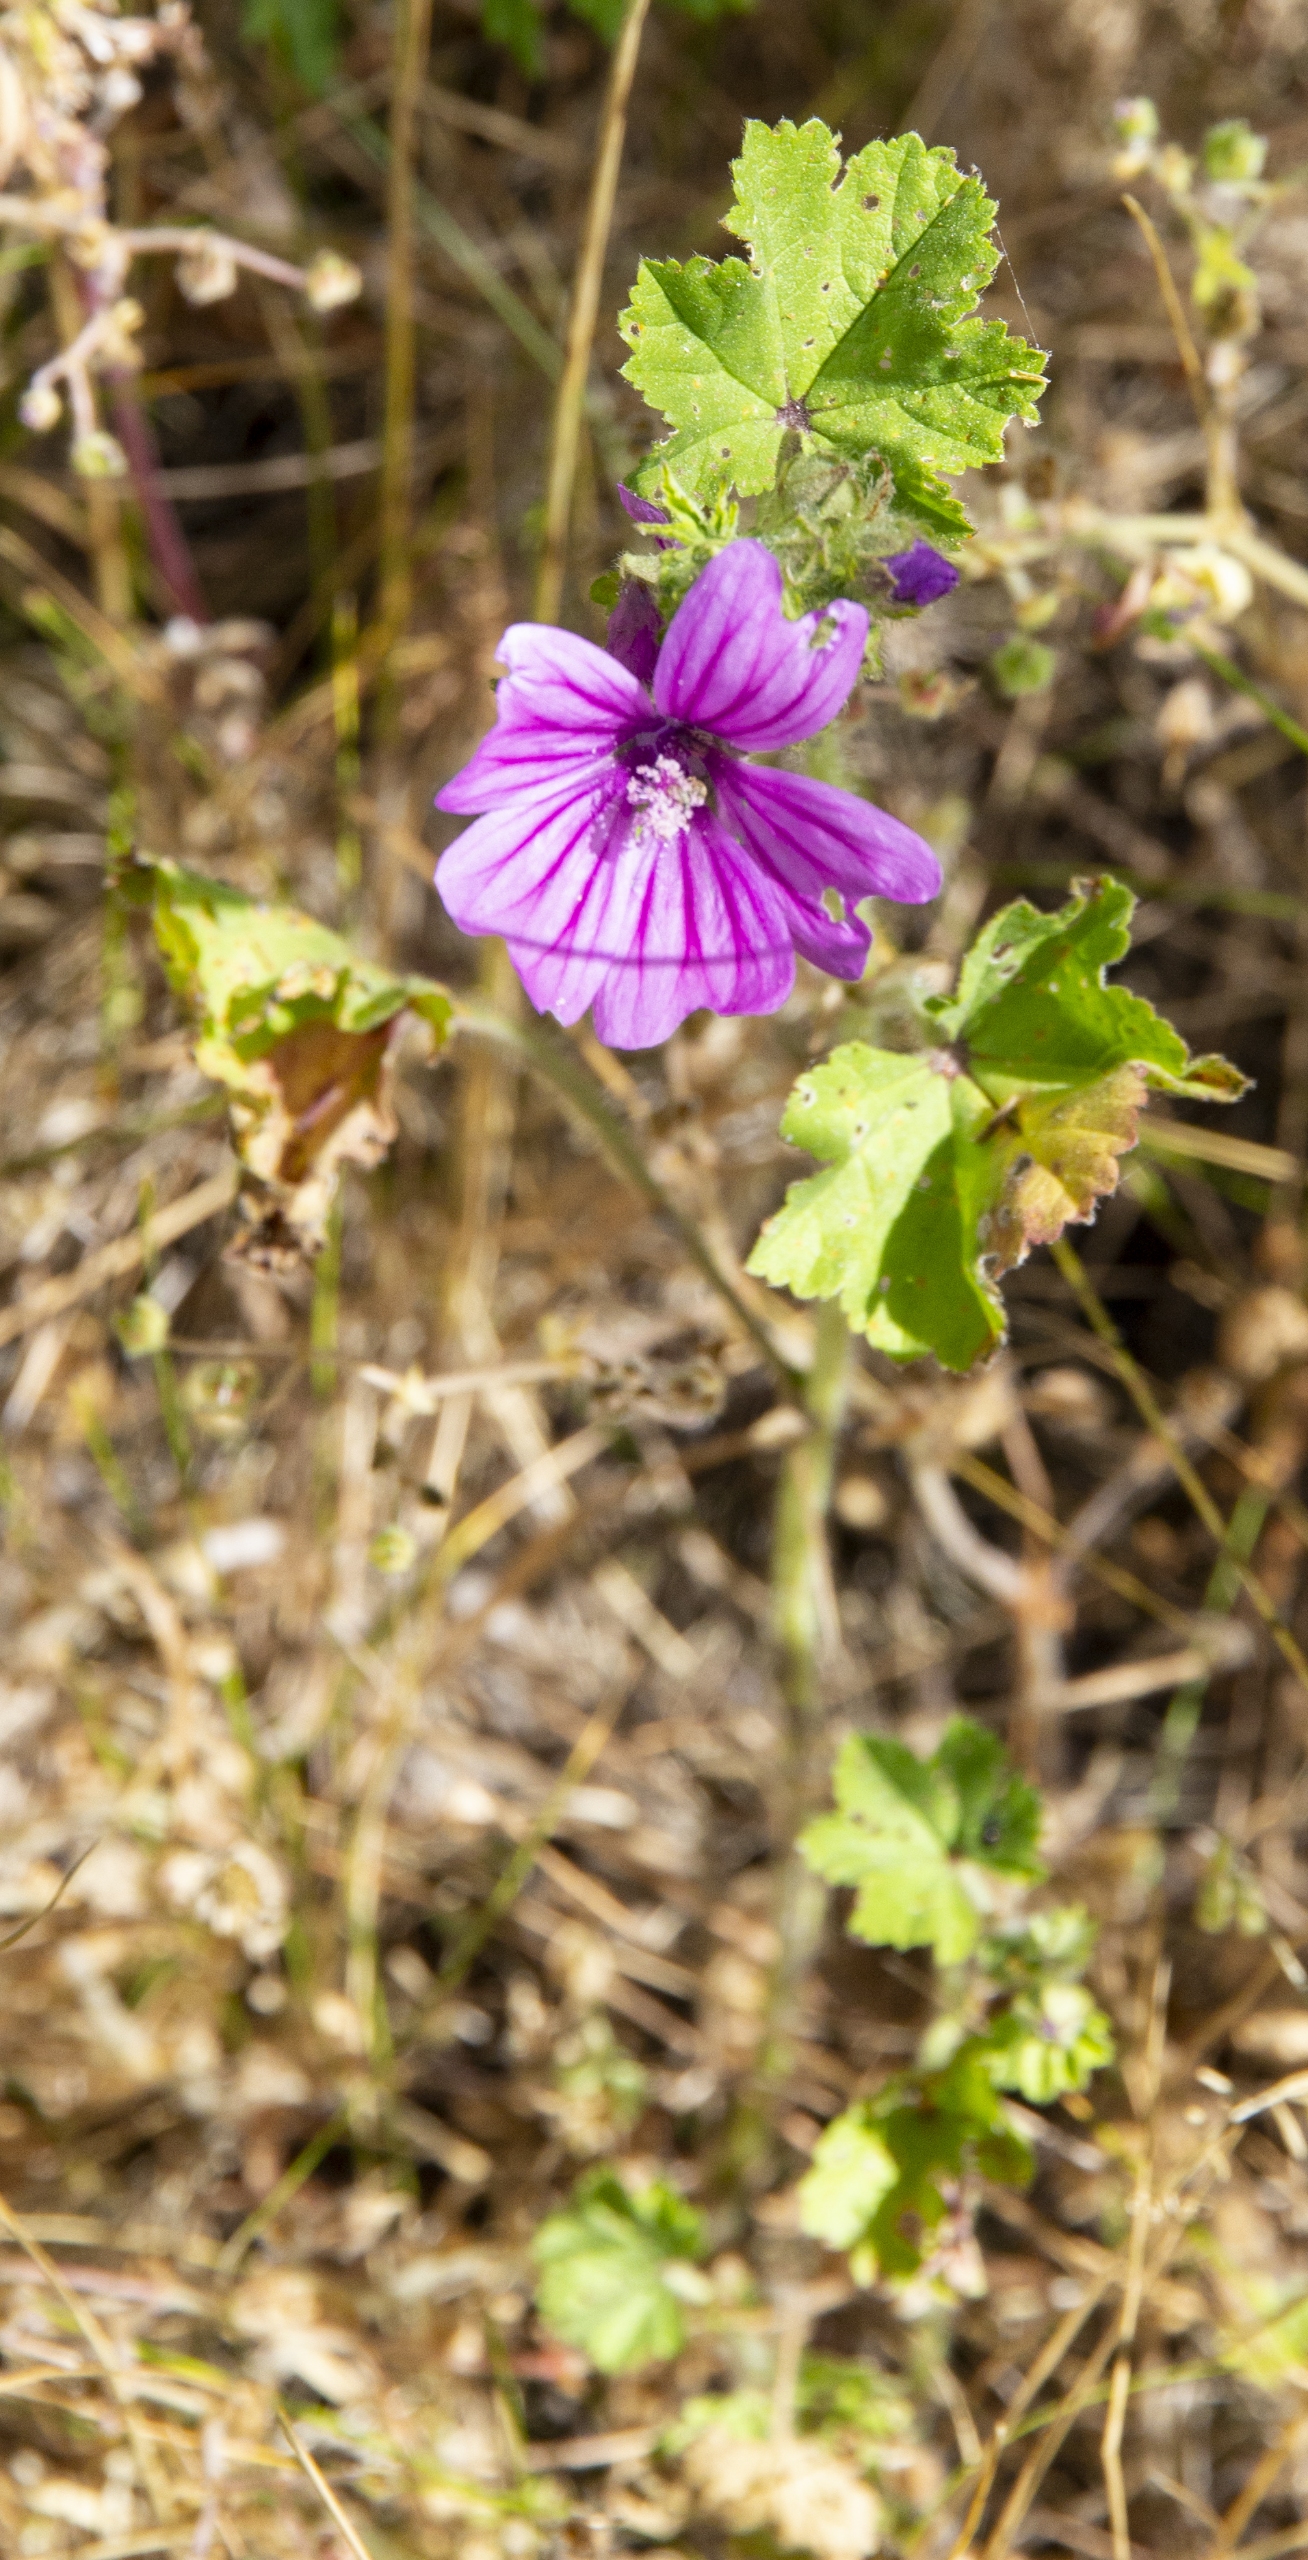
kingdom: Plantae
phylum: Tracheophyta
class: Magnoliopsida
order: Malvales
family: Malvaceae
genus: Malva
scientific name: Malva sylvestris
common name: Almindelig katost
